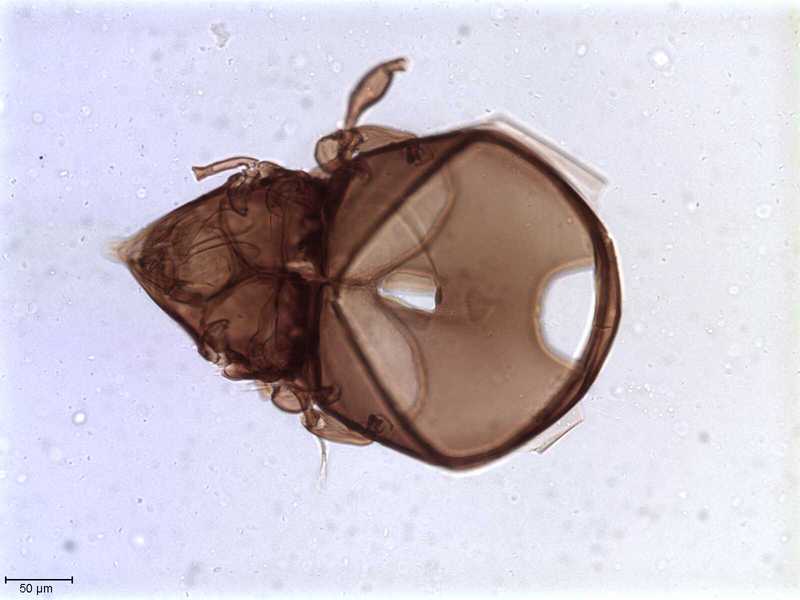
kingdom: Animalia
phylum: Arthropoda
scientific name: Arthropoda
